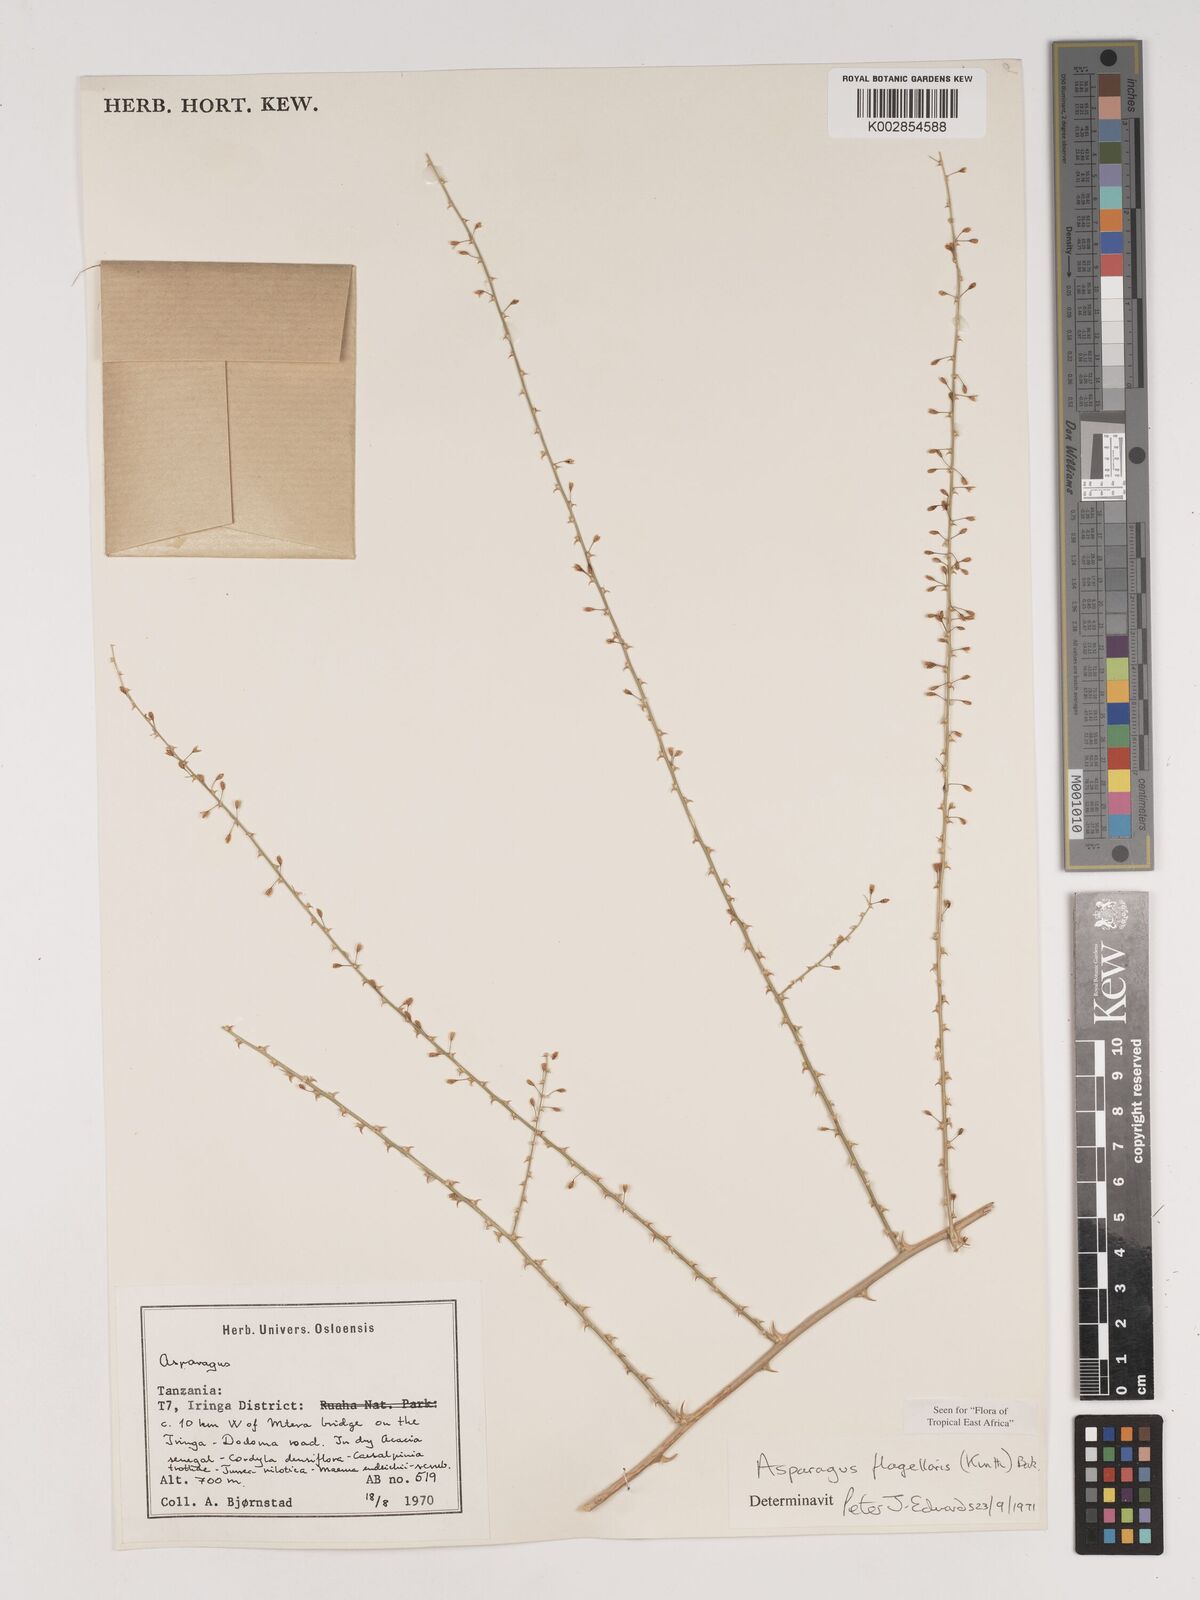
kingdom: Plantae
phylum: Tracheophyta
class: Liliopsida
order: Asparagales
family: Asparagaceae
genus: Asparagus
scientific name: Asparagus flagellaris
